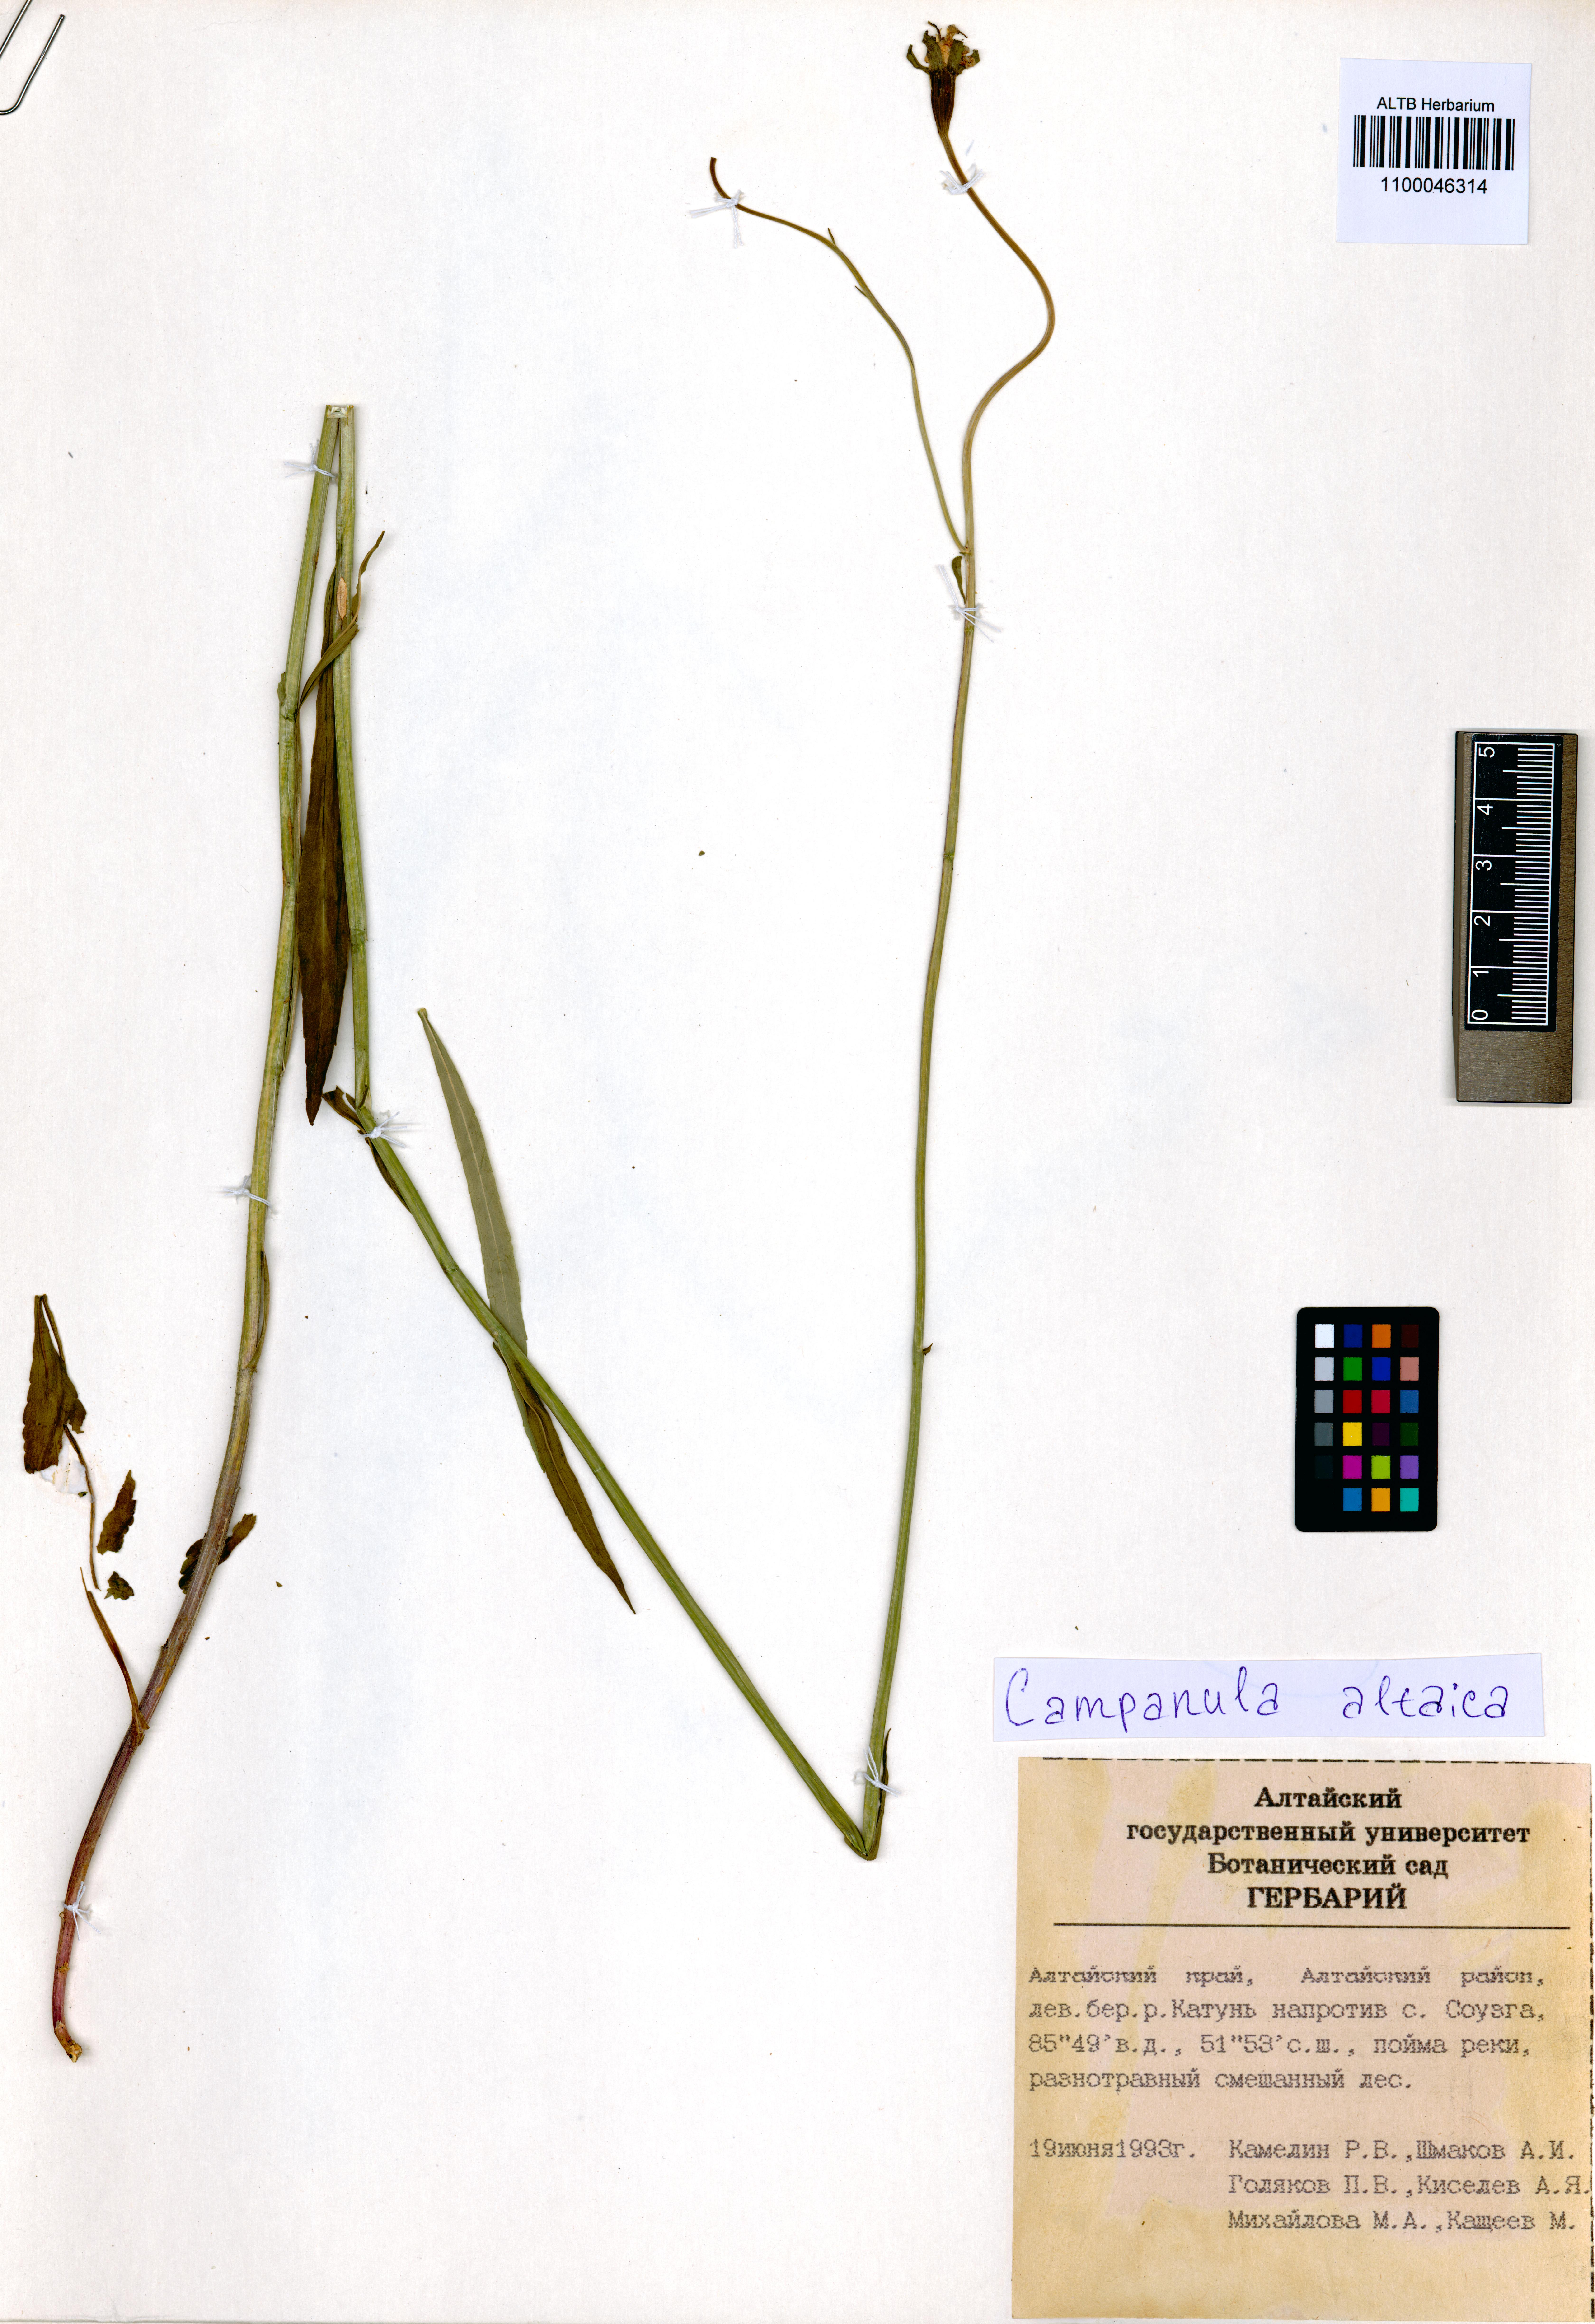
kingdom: Plantae
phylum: Tracheophyta
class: Magnoliopsida
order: Asterales
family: Campanulaceae
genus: Campanula
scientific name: Campanula stevenii
